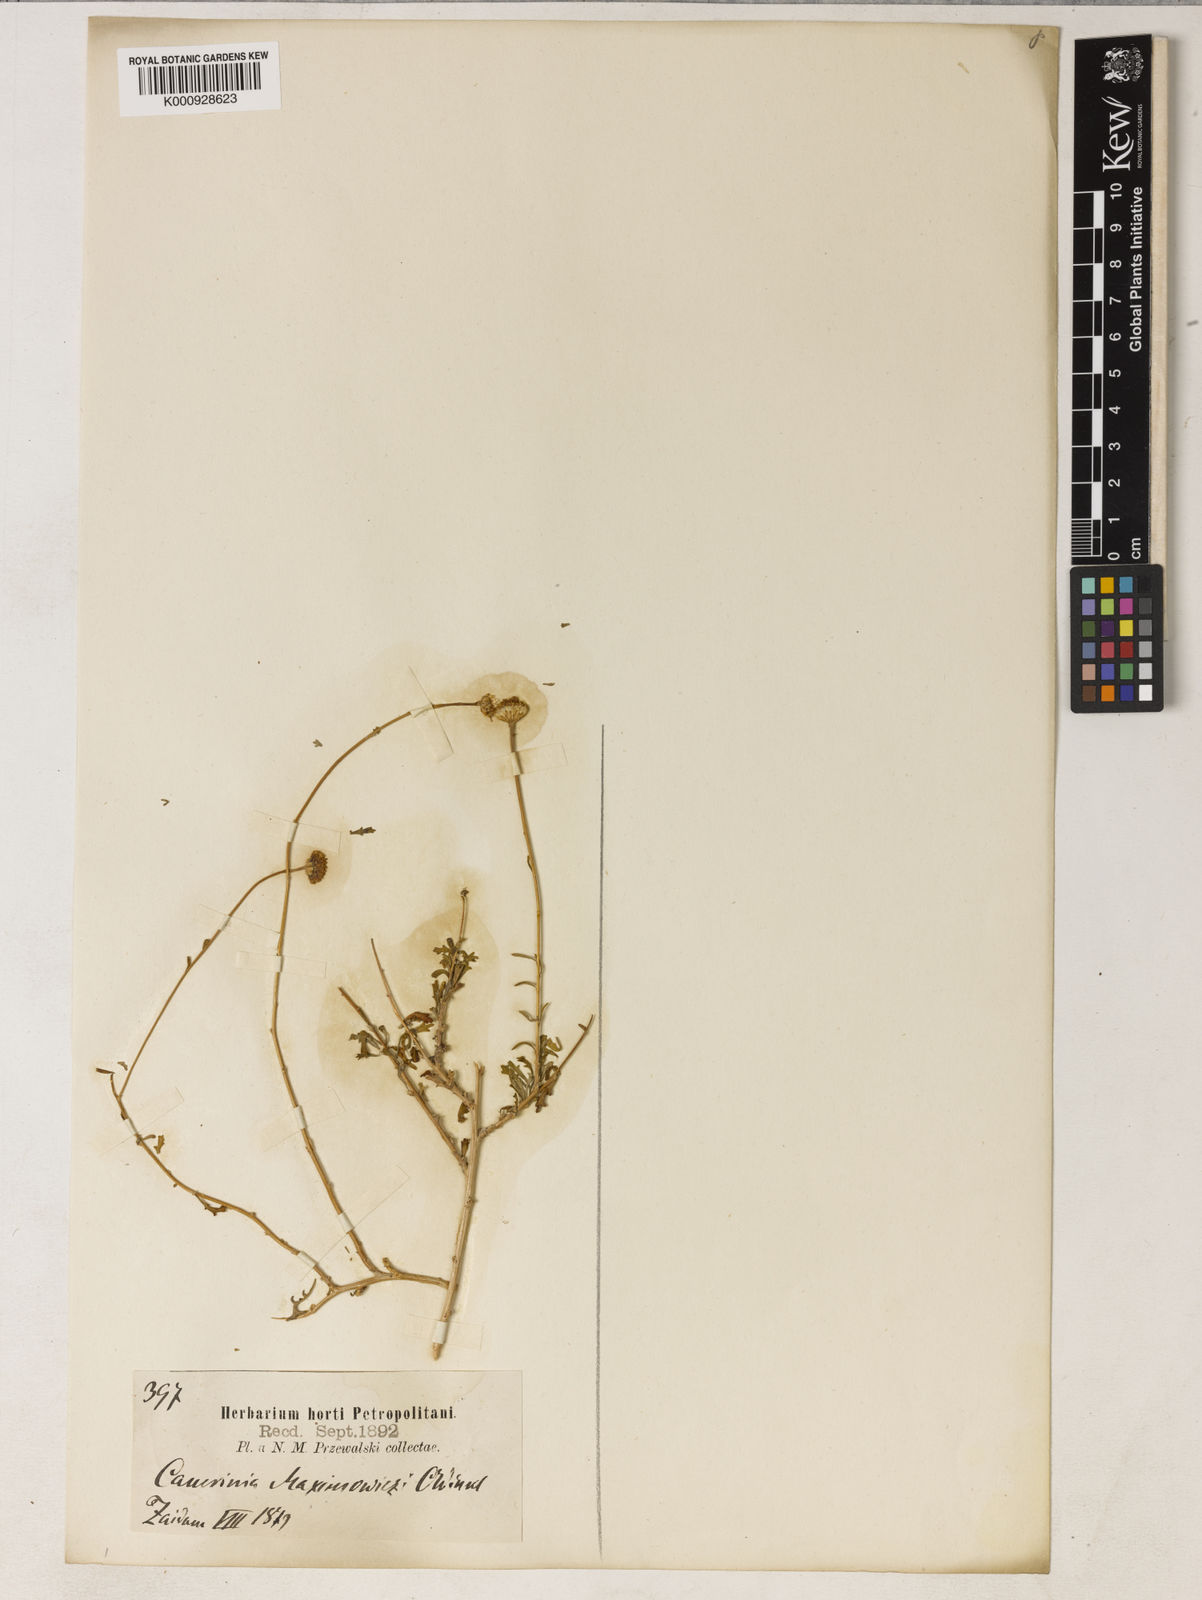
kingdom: Plantae
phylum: Tracheophyta
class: Magnoliopsida
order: Asterales
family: Asteraceae
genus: Cancrinia
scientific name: Cancrinia maximowiczii
